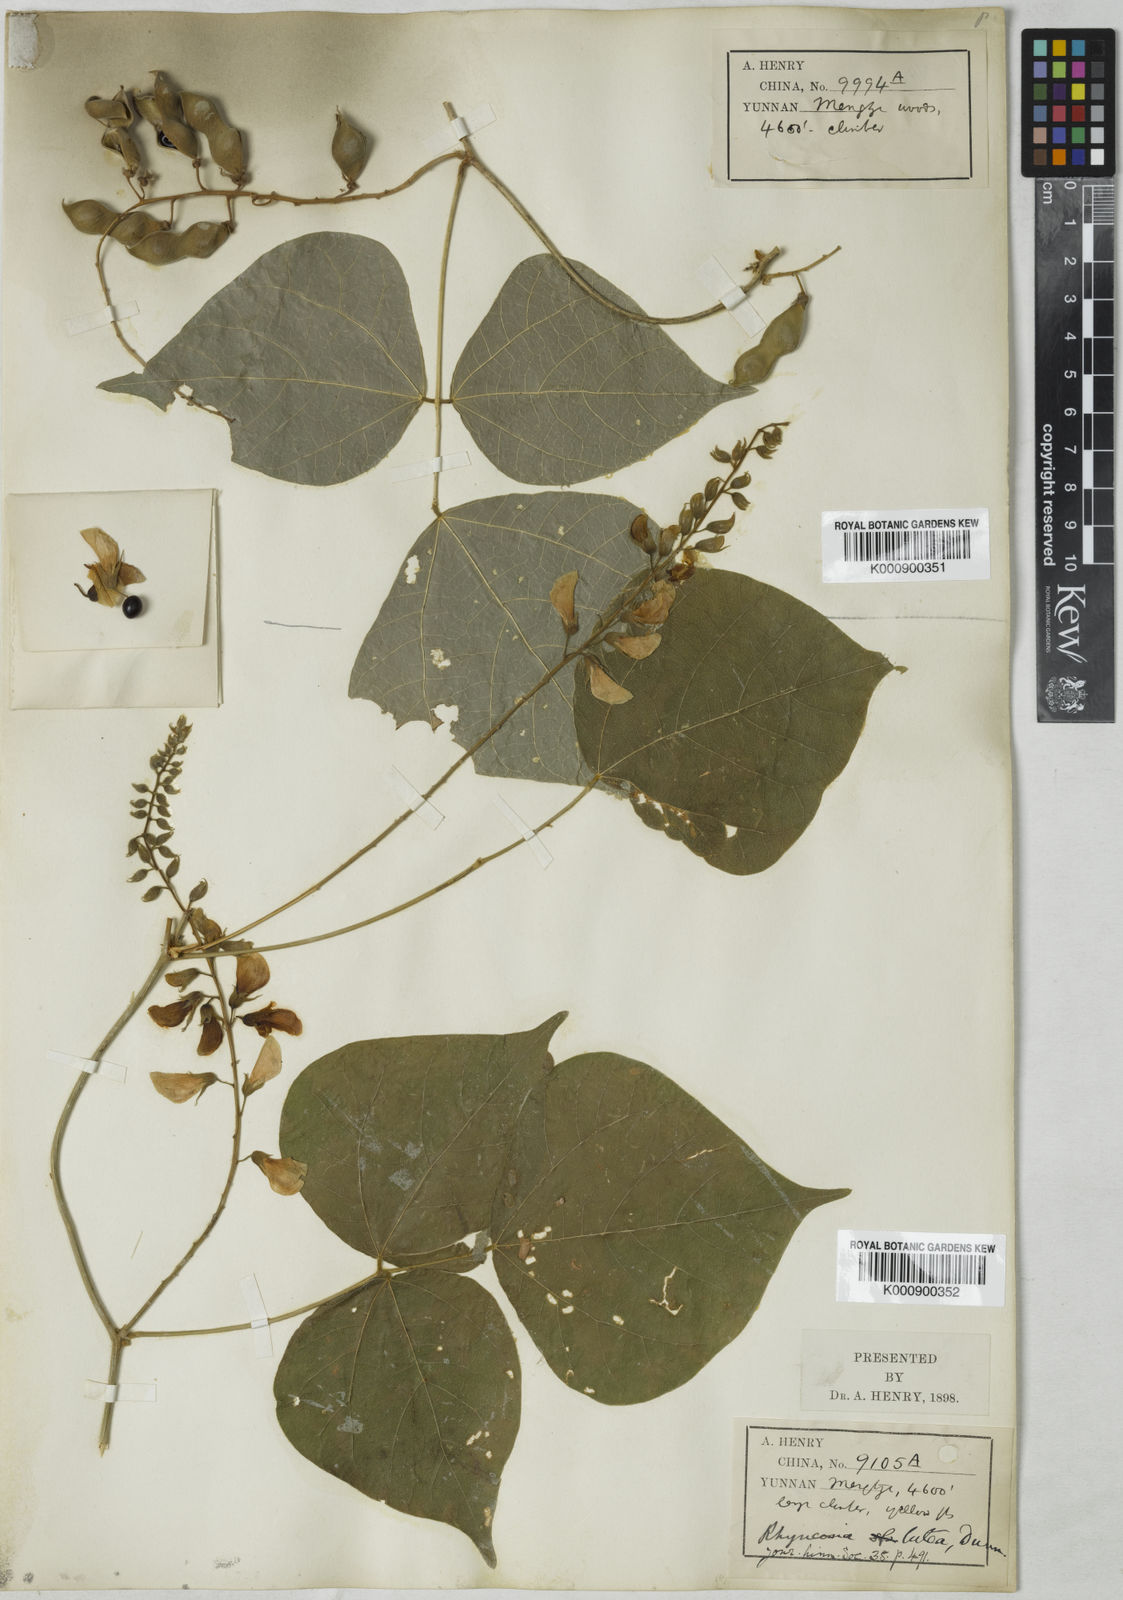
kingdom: Plantae
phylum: Tracheophyta
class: Magnoliopsida
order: Fabales
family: Fabaceae
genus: Rhynchosia
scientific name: Rhynchosia lutea
